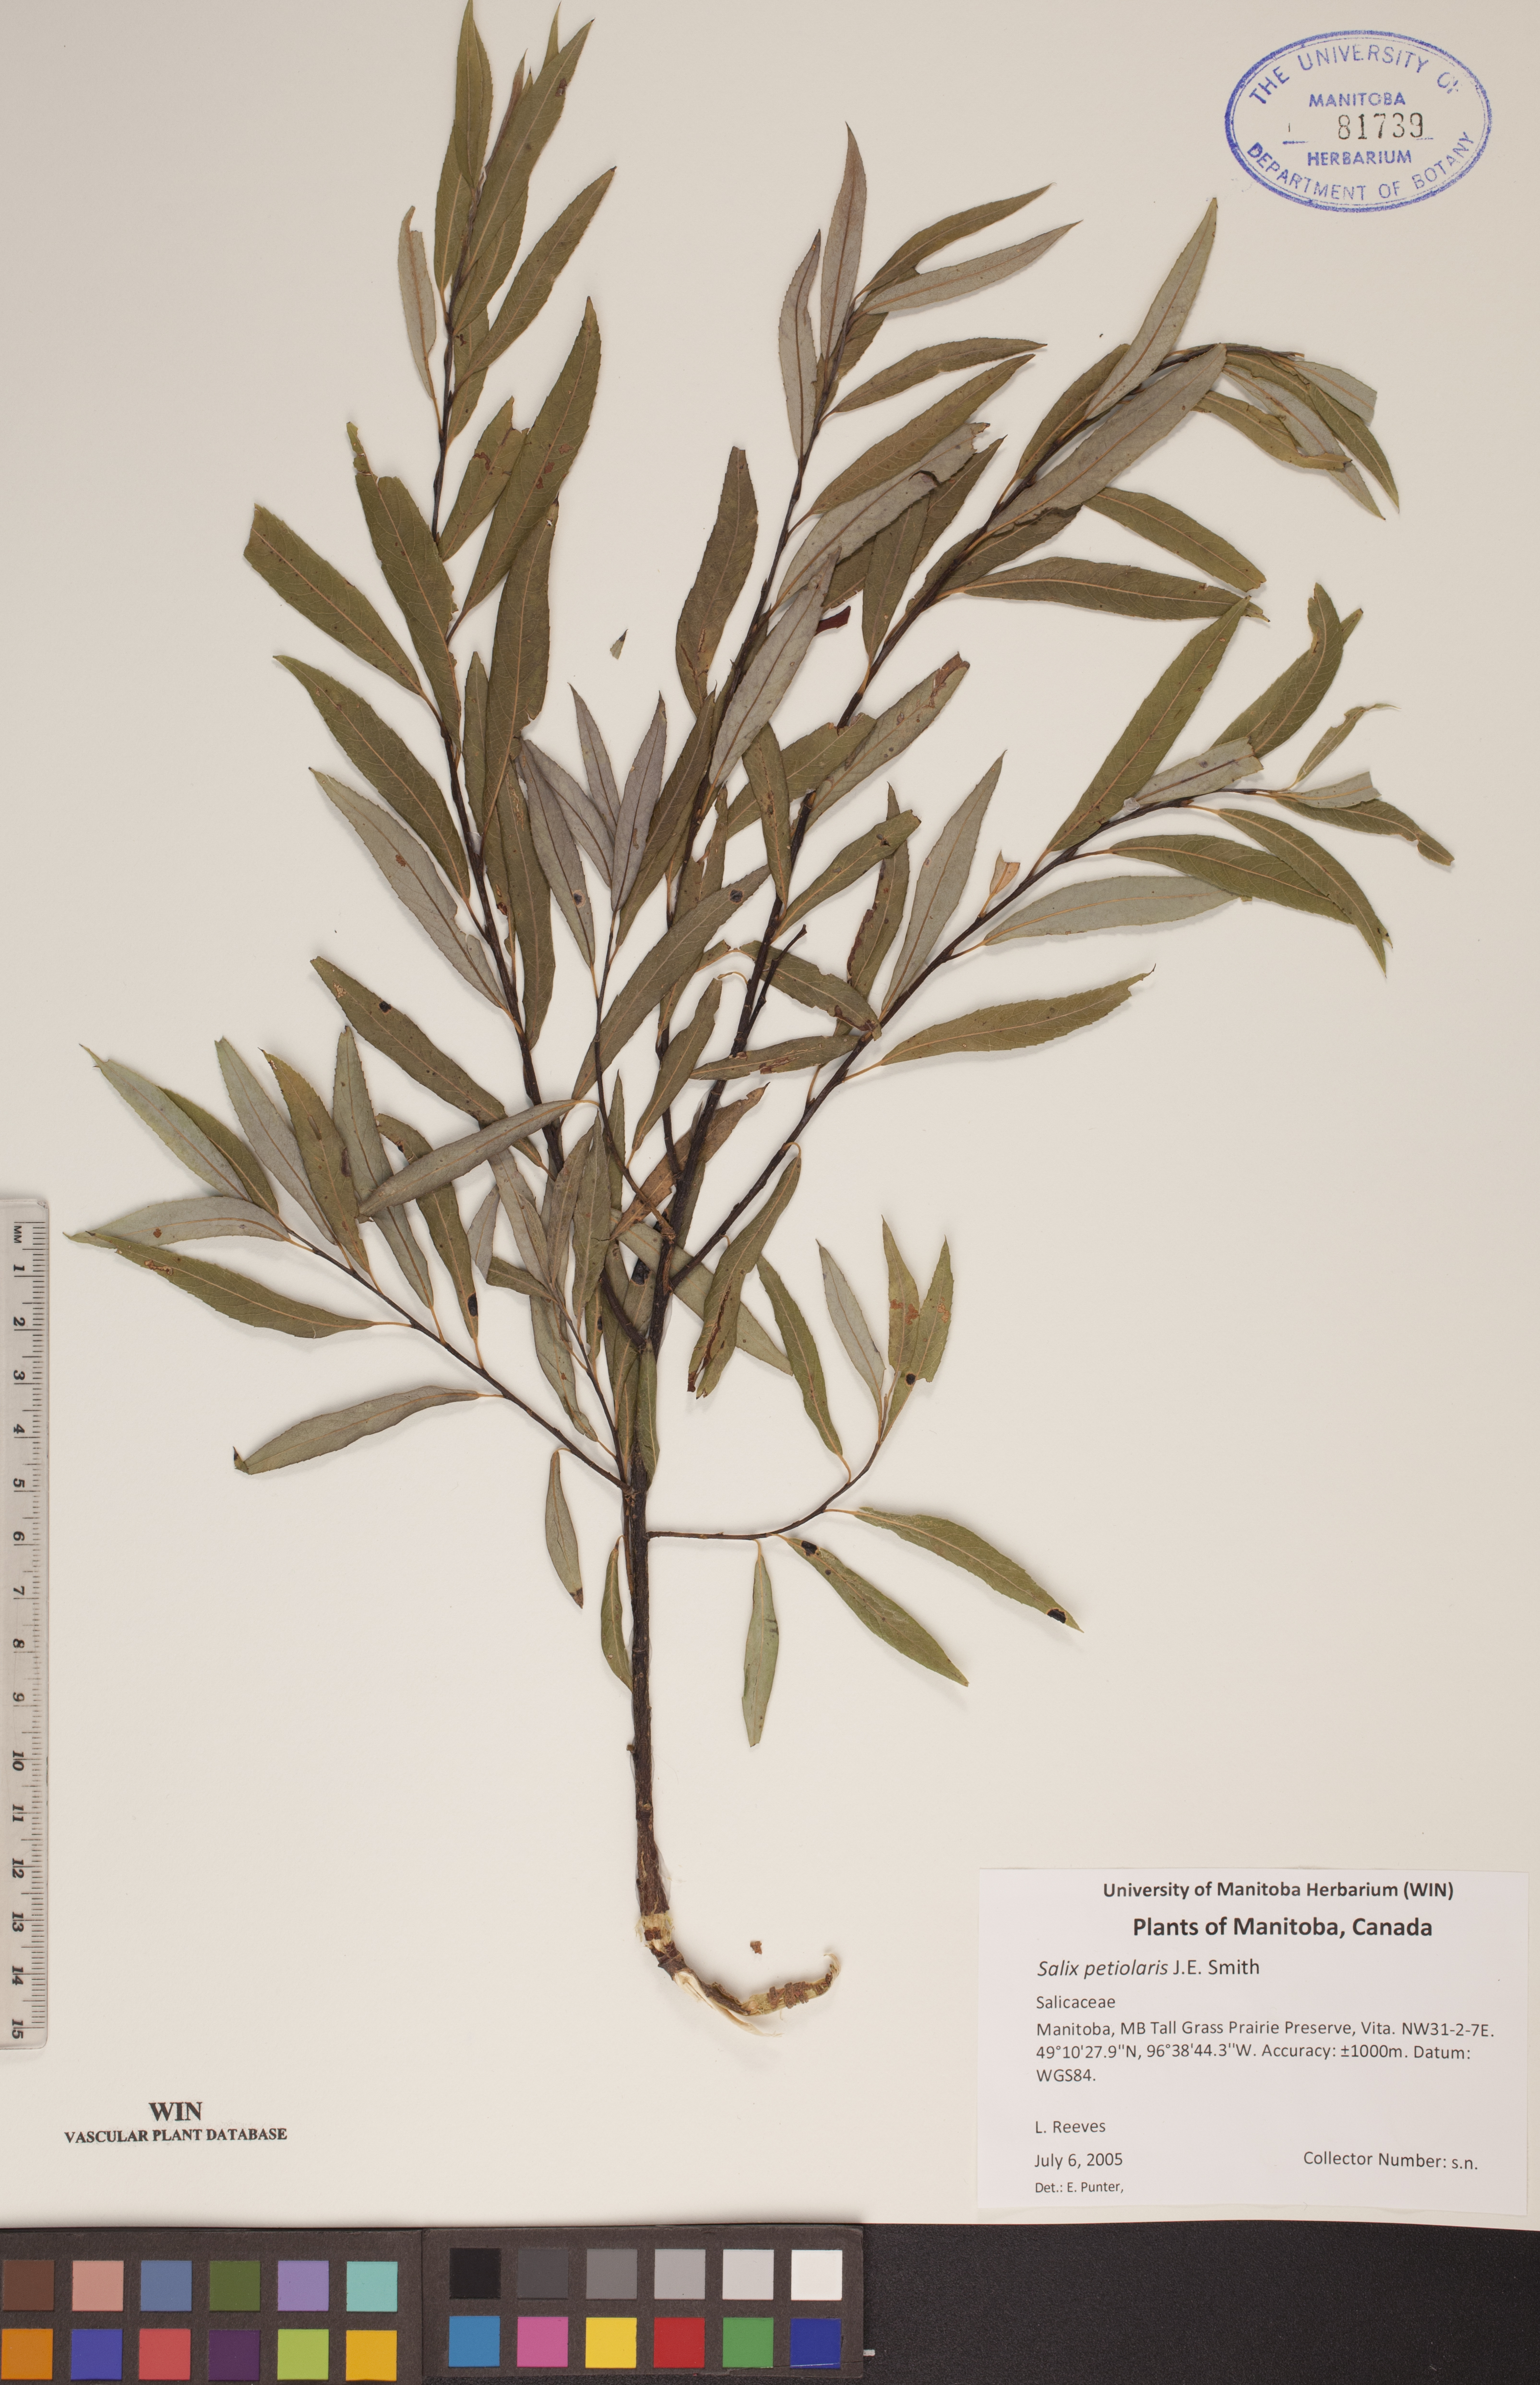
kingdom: Plantae
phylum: Tracheophyta
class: Magnoliopsida
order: Malpighiales
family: Salicaceae
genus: Salix
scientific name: Salix petiolaris
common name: Slender willow
